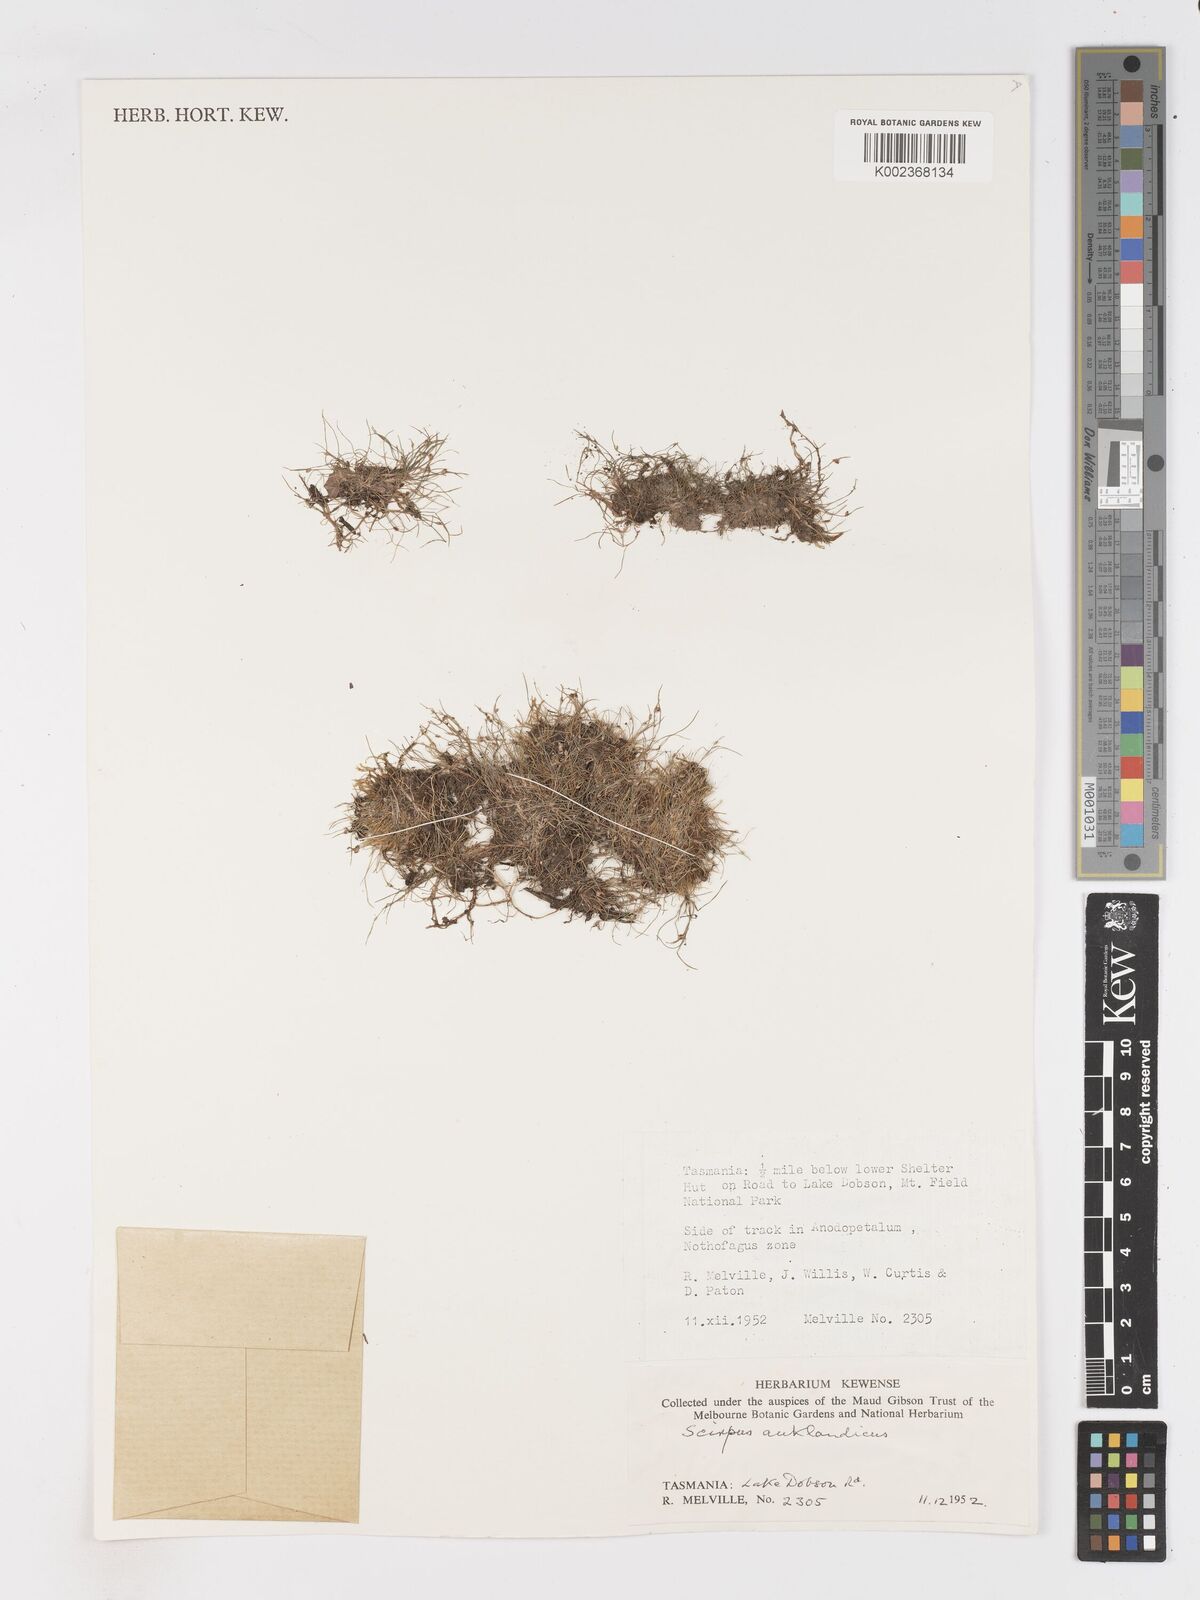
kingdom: Plantae
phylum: Tracheophyta
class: Liliopsida
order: Poales
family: Cyperaceae
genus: Isolepis
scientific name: Isolepis aucklandica
